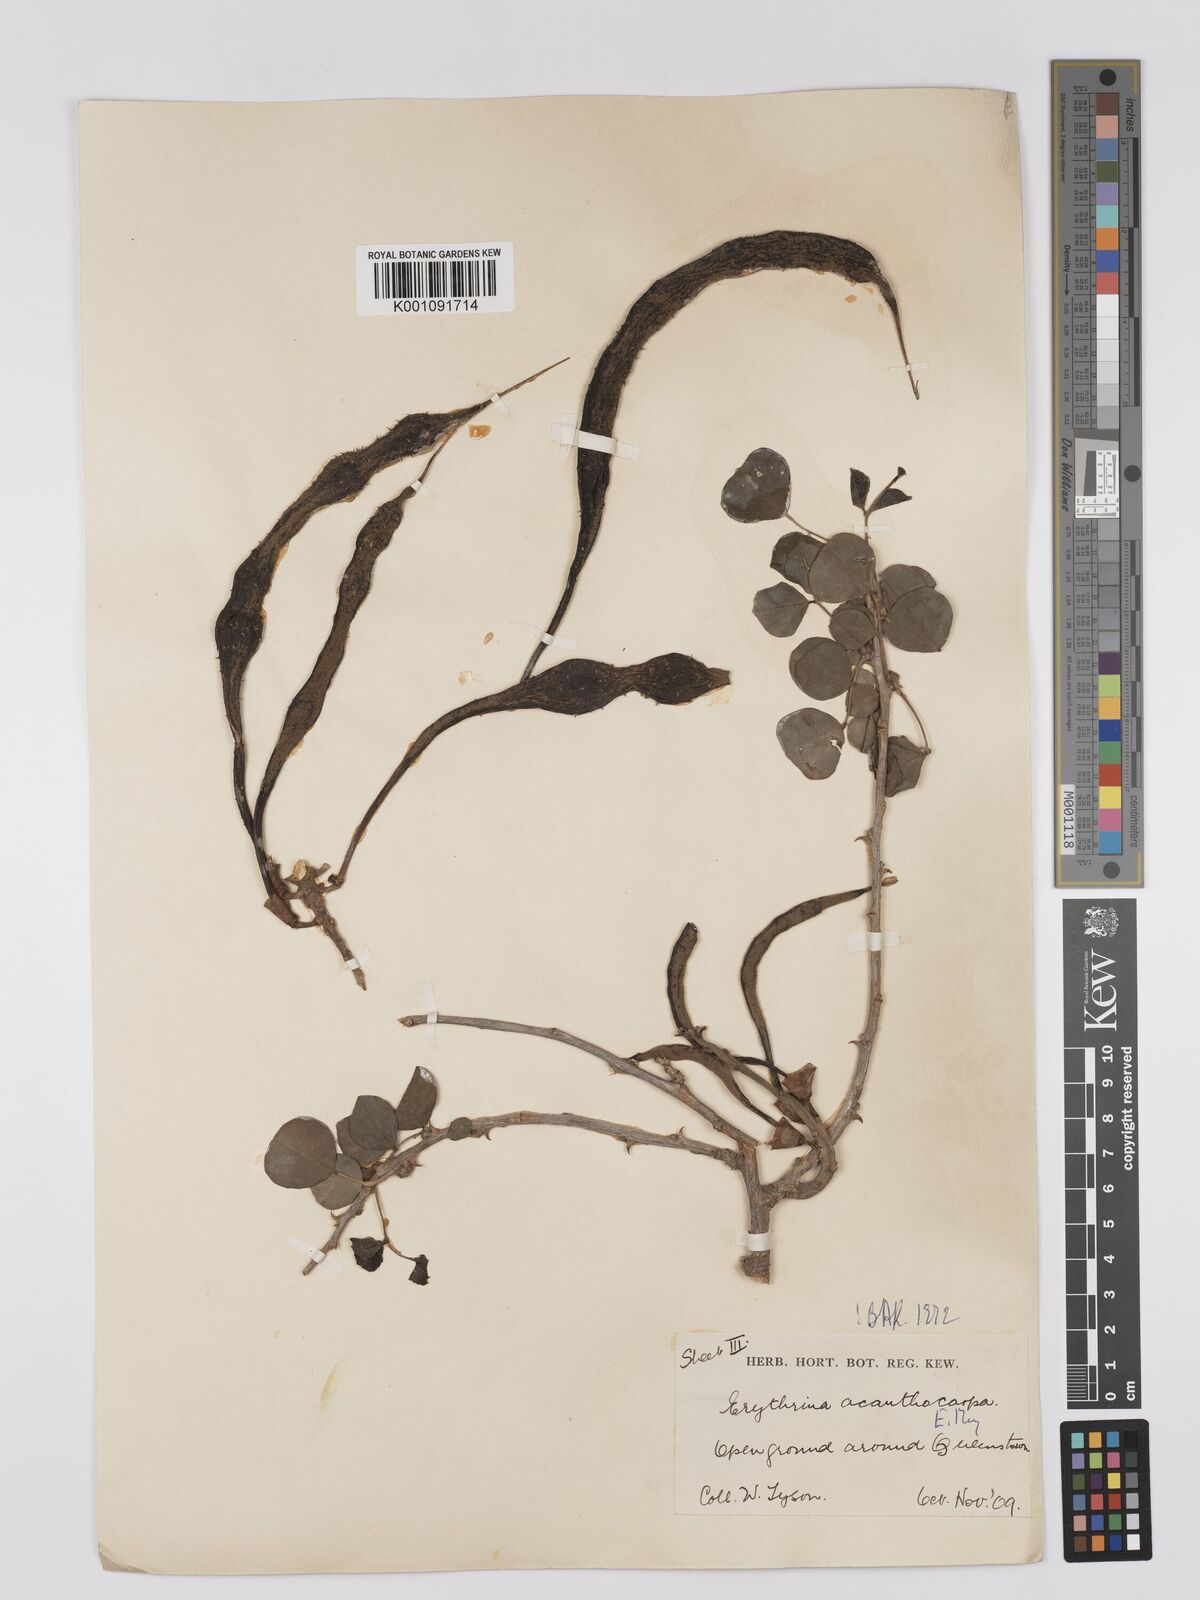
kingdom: Plantae
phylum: Tracheophyta
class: Magnoliopsida
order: Fabales
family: Fabaceae
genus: Erythrina
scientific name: Erythrina acanthocarpa
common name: Thorny coraltree
